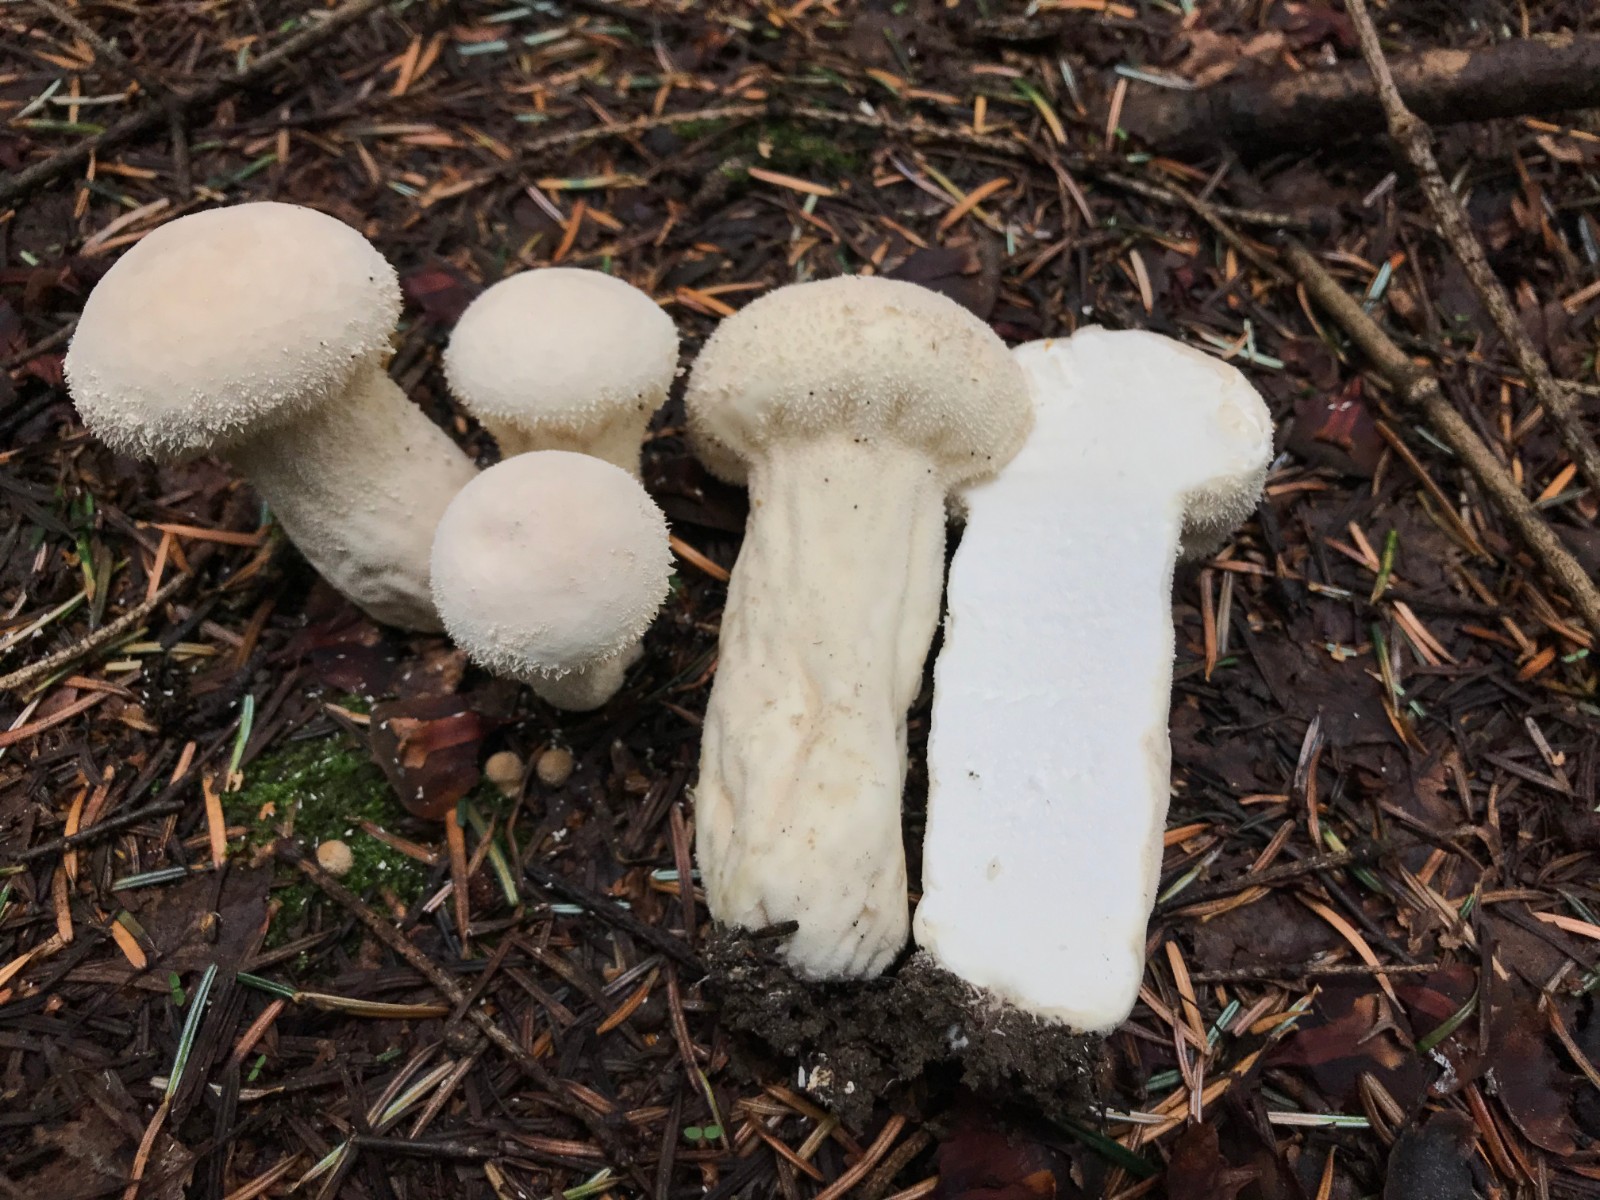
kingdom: Fungi
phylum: Basidiomycota
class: Agaricomycetes
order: Agaricales
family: Lycoperdaceae
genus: Lycoperdon
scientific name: Lycoperdon excipuliforme
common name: højstokket støvbold
